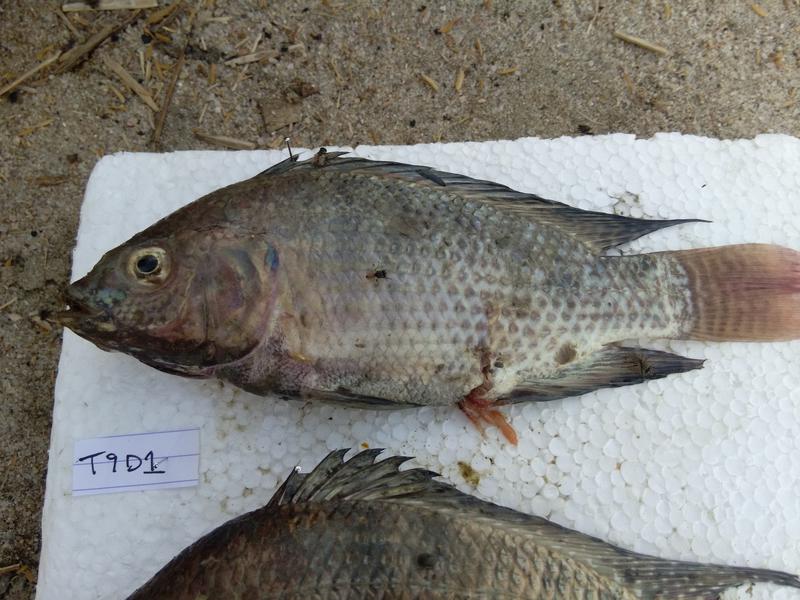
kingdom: Animalia
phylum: Chordata
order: Perciformes
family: Cichlidae
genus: Oreochromis
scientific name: Oreochromis niloticus
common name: Nile tilapia
